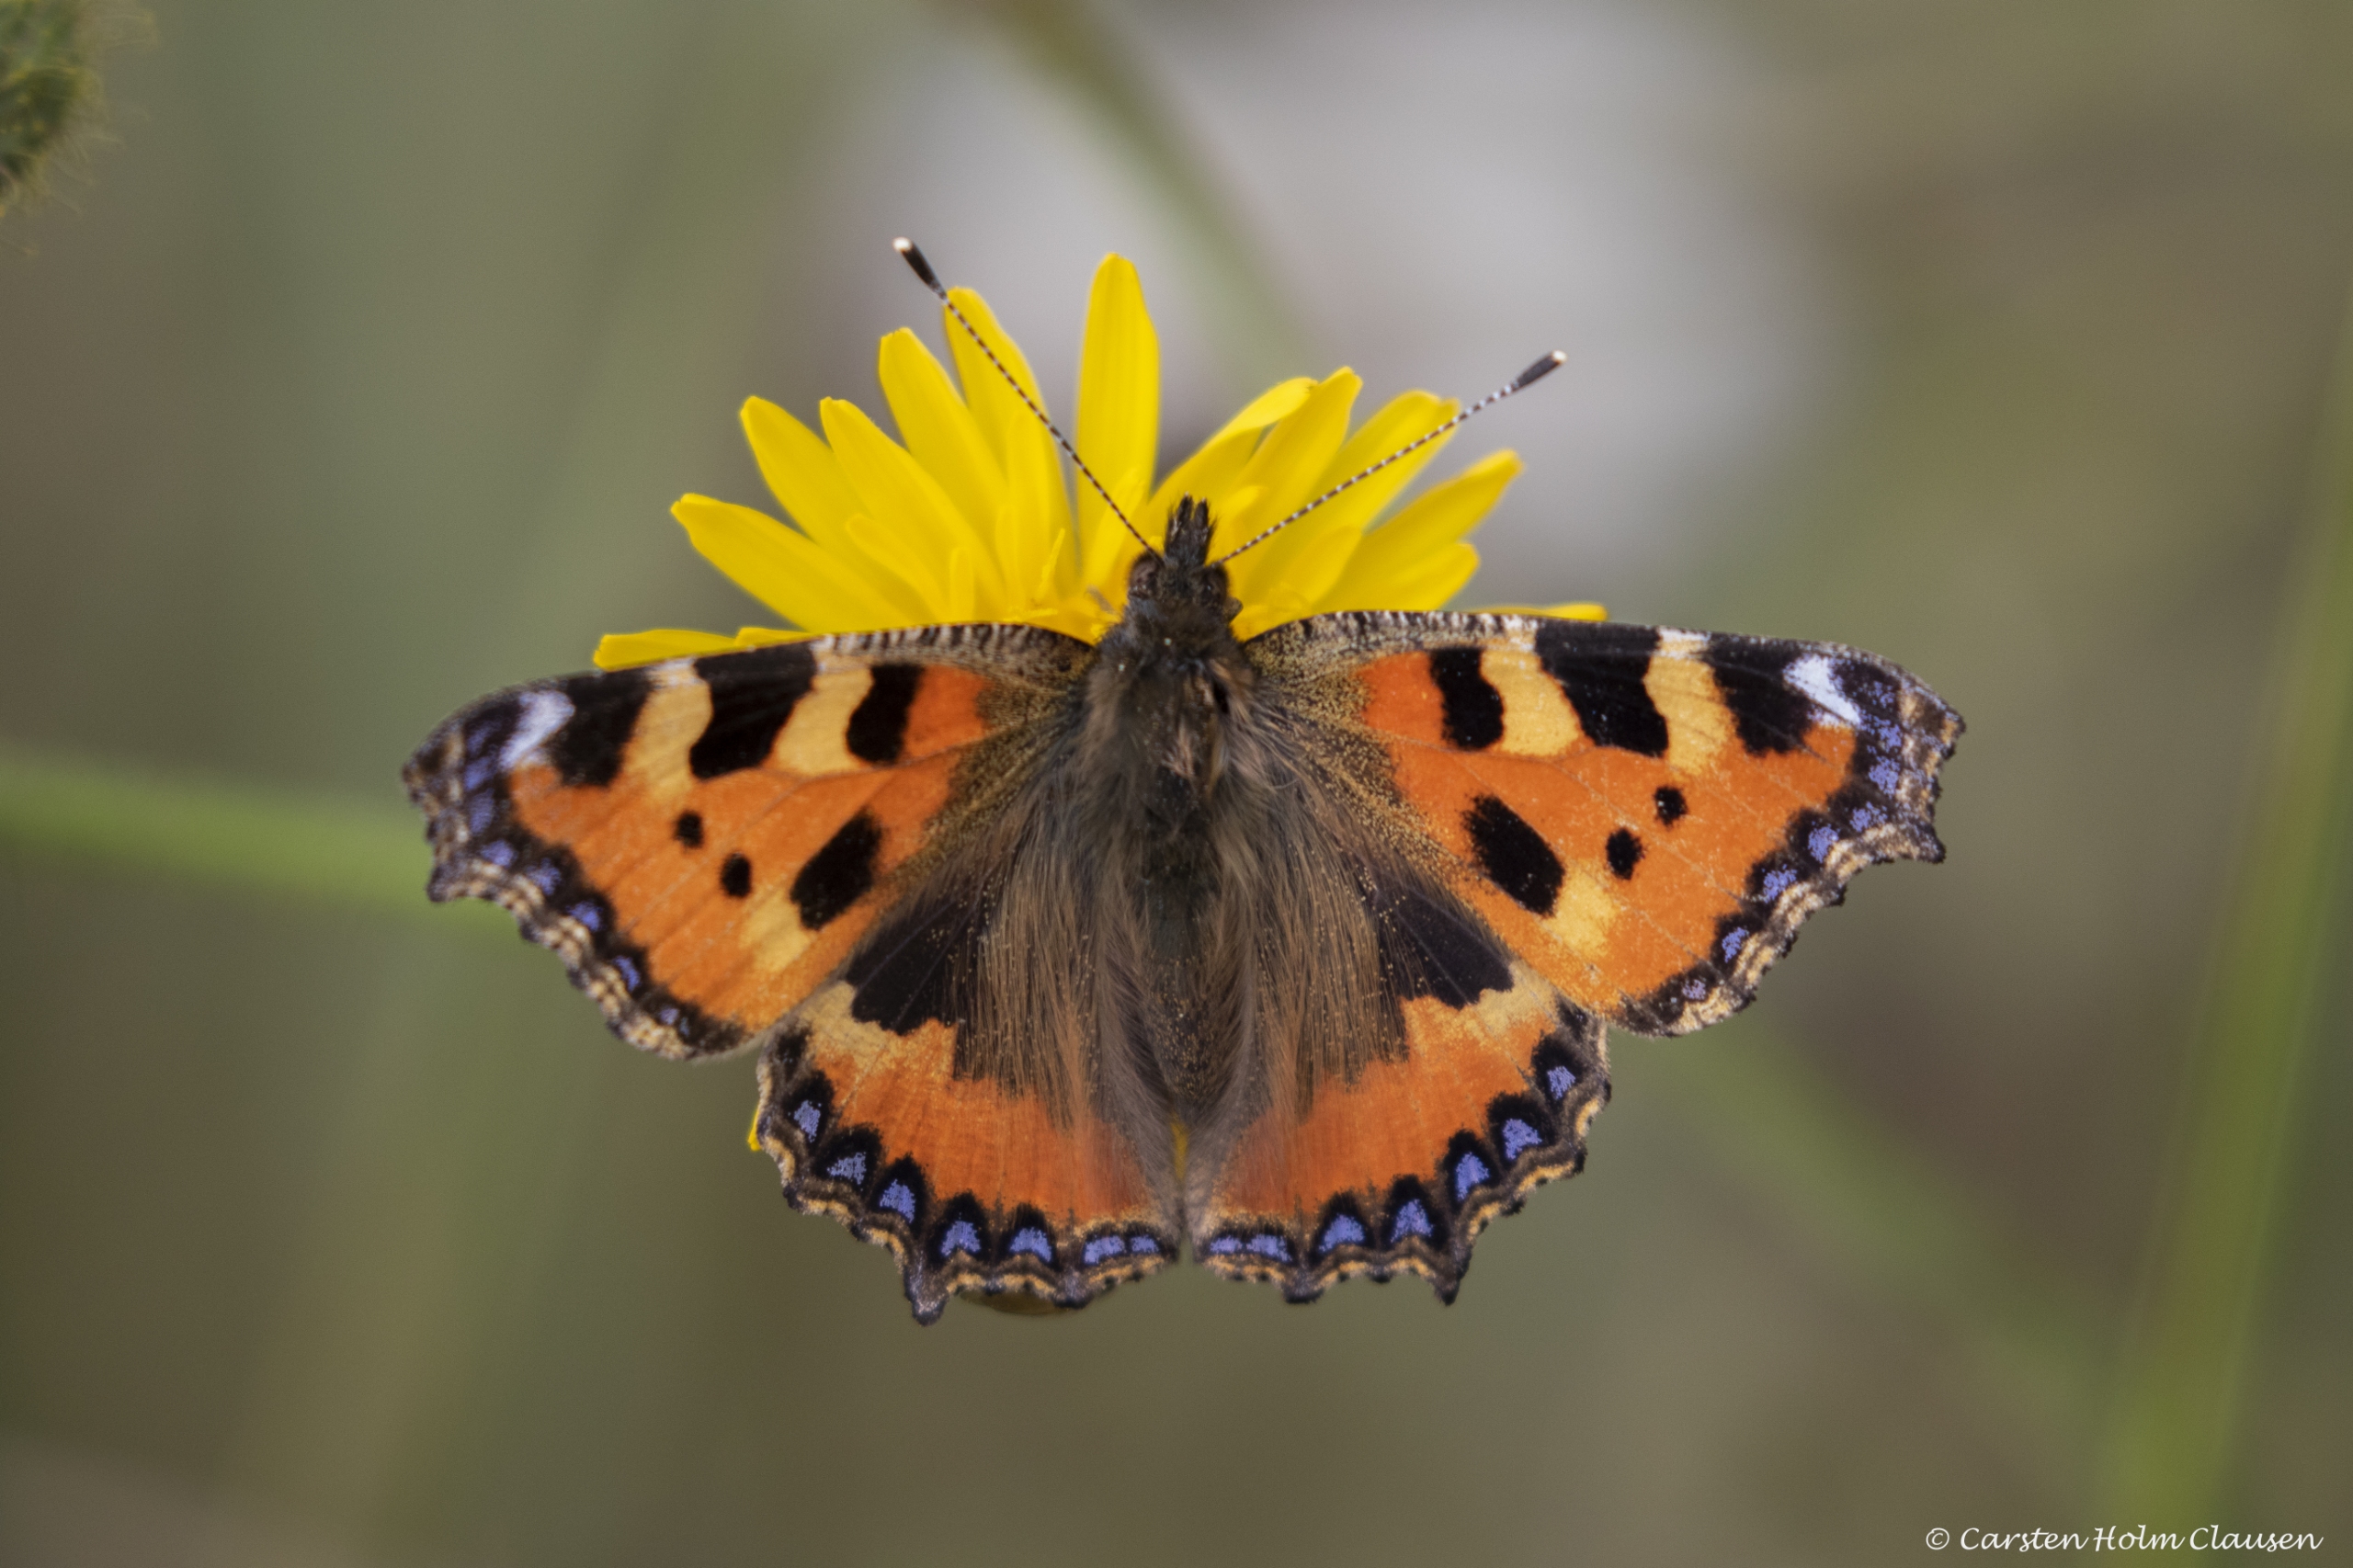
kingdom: Animalia
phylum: Arthropoda
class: Insecta
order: Lepidoptera
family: Nymphalidae
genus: Aglais
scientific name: Aglais urticae
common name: Nældens takvinge
